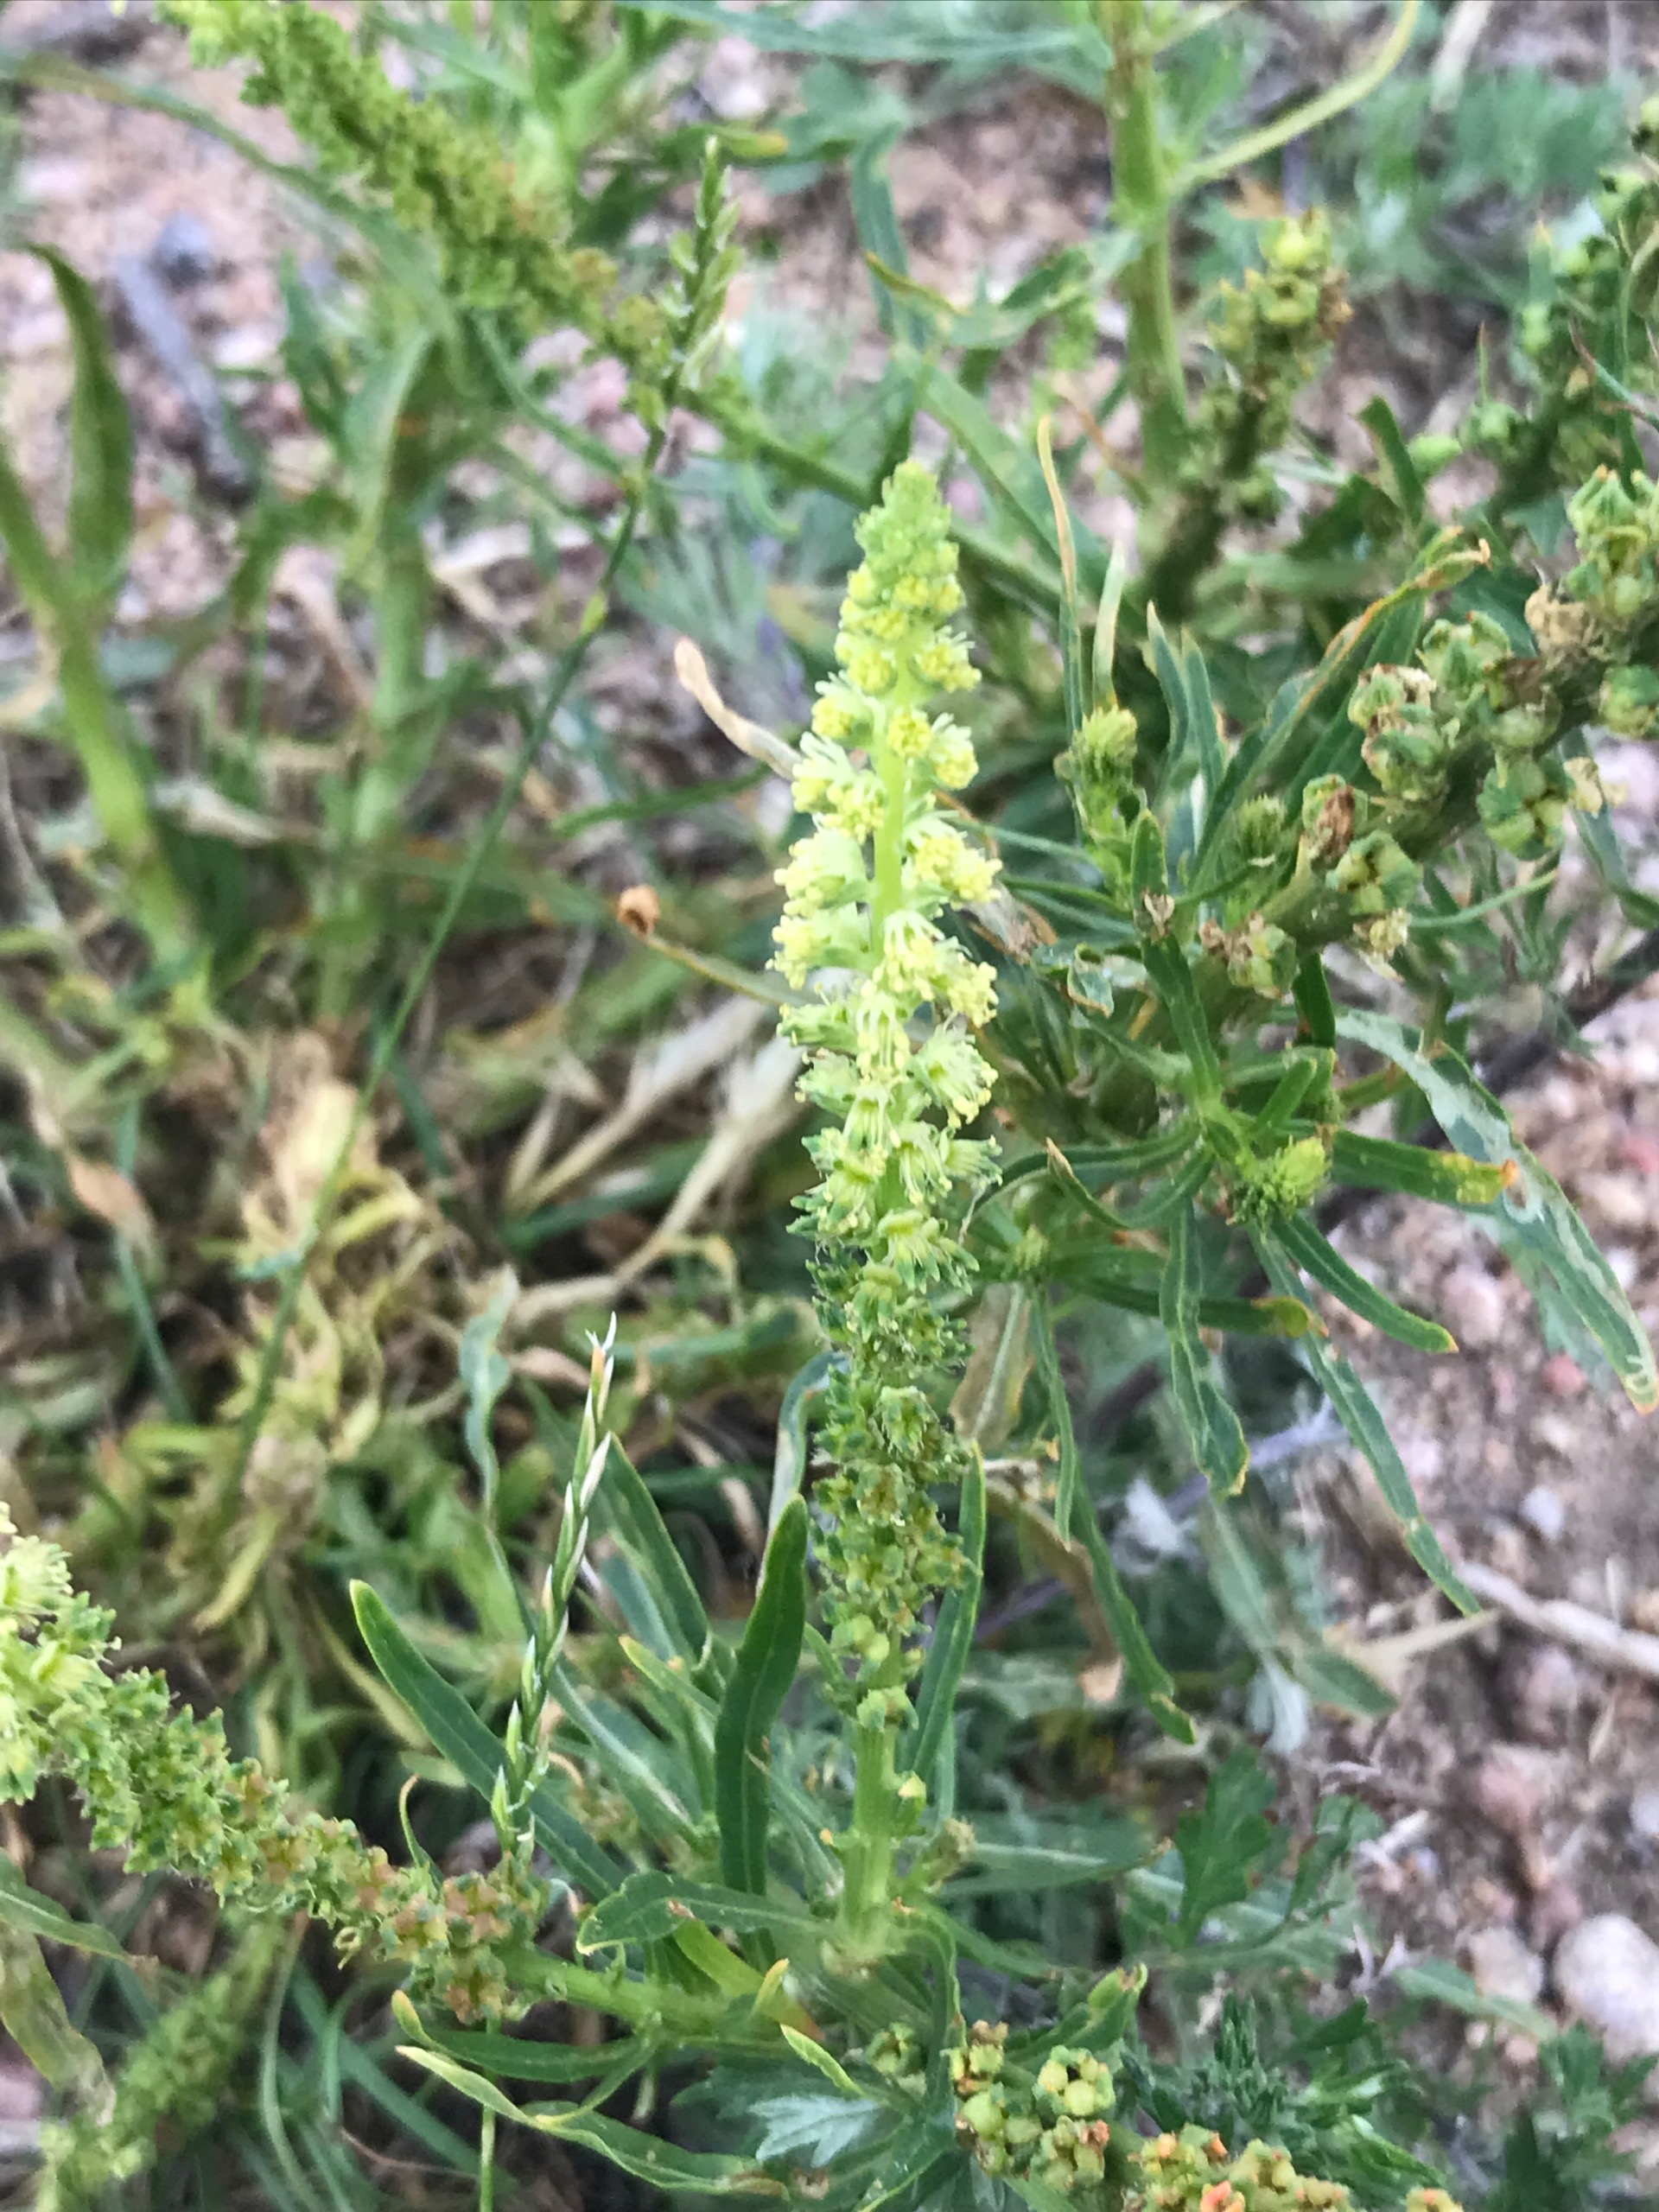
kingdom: Plantae
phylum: Tracheophyta
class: Magnoliopsida
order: Brassicales
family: Resedaceae
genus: Reseda
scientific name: Reseda luteola
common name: Farve-reseda
